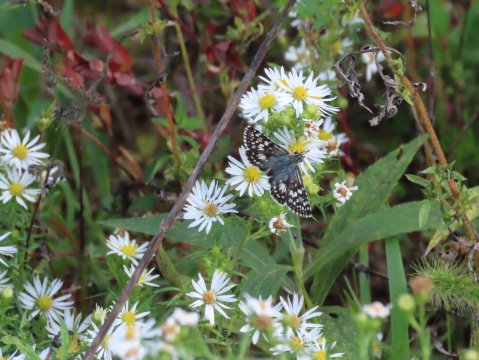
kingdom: Animalia
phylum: Arthropoda
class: Insecta
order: Lepidoptera
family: Hesperiidae
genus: Pyrgus
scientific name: Pyrgus communis
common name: Common Checkered-Skipper
